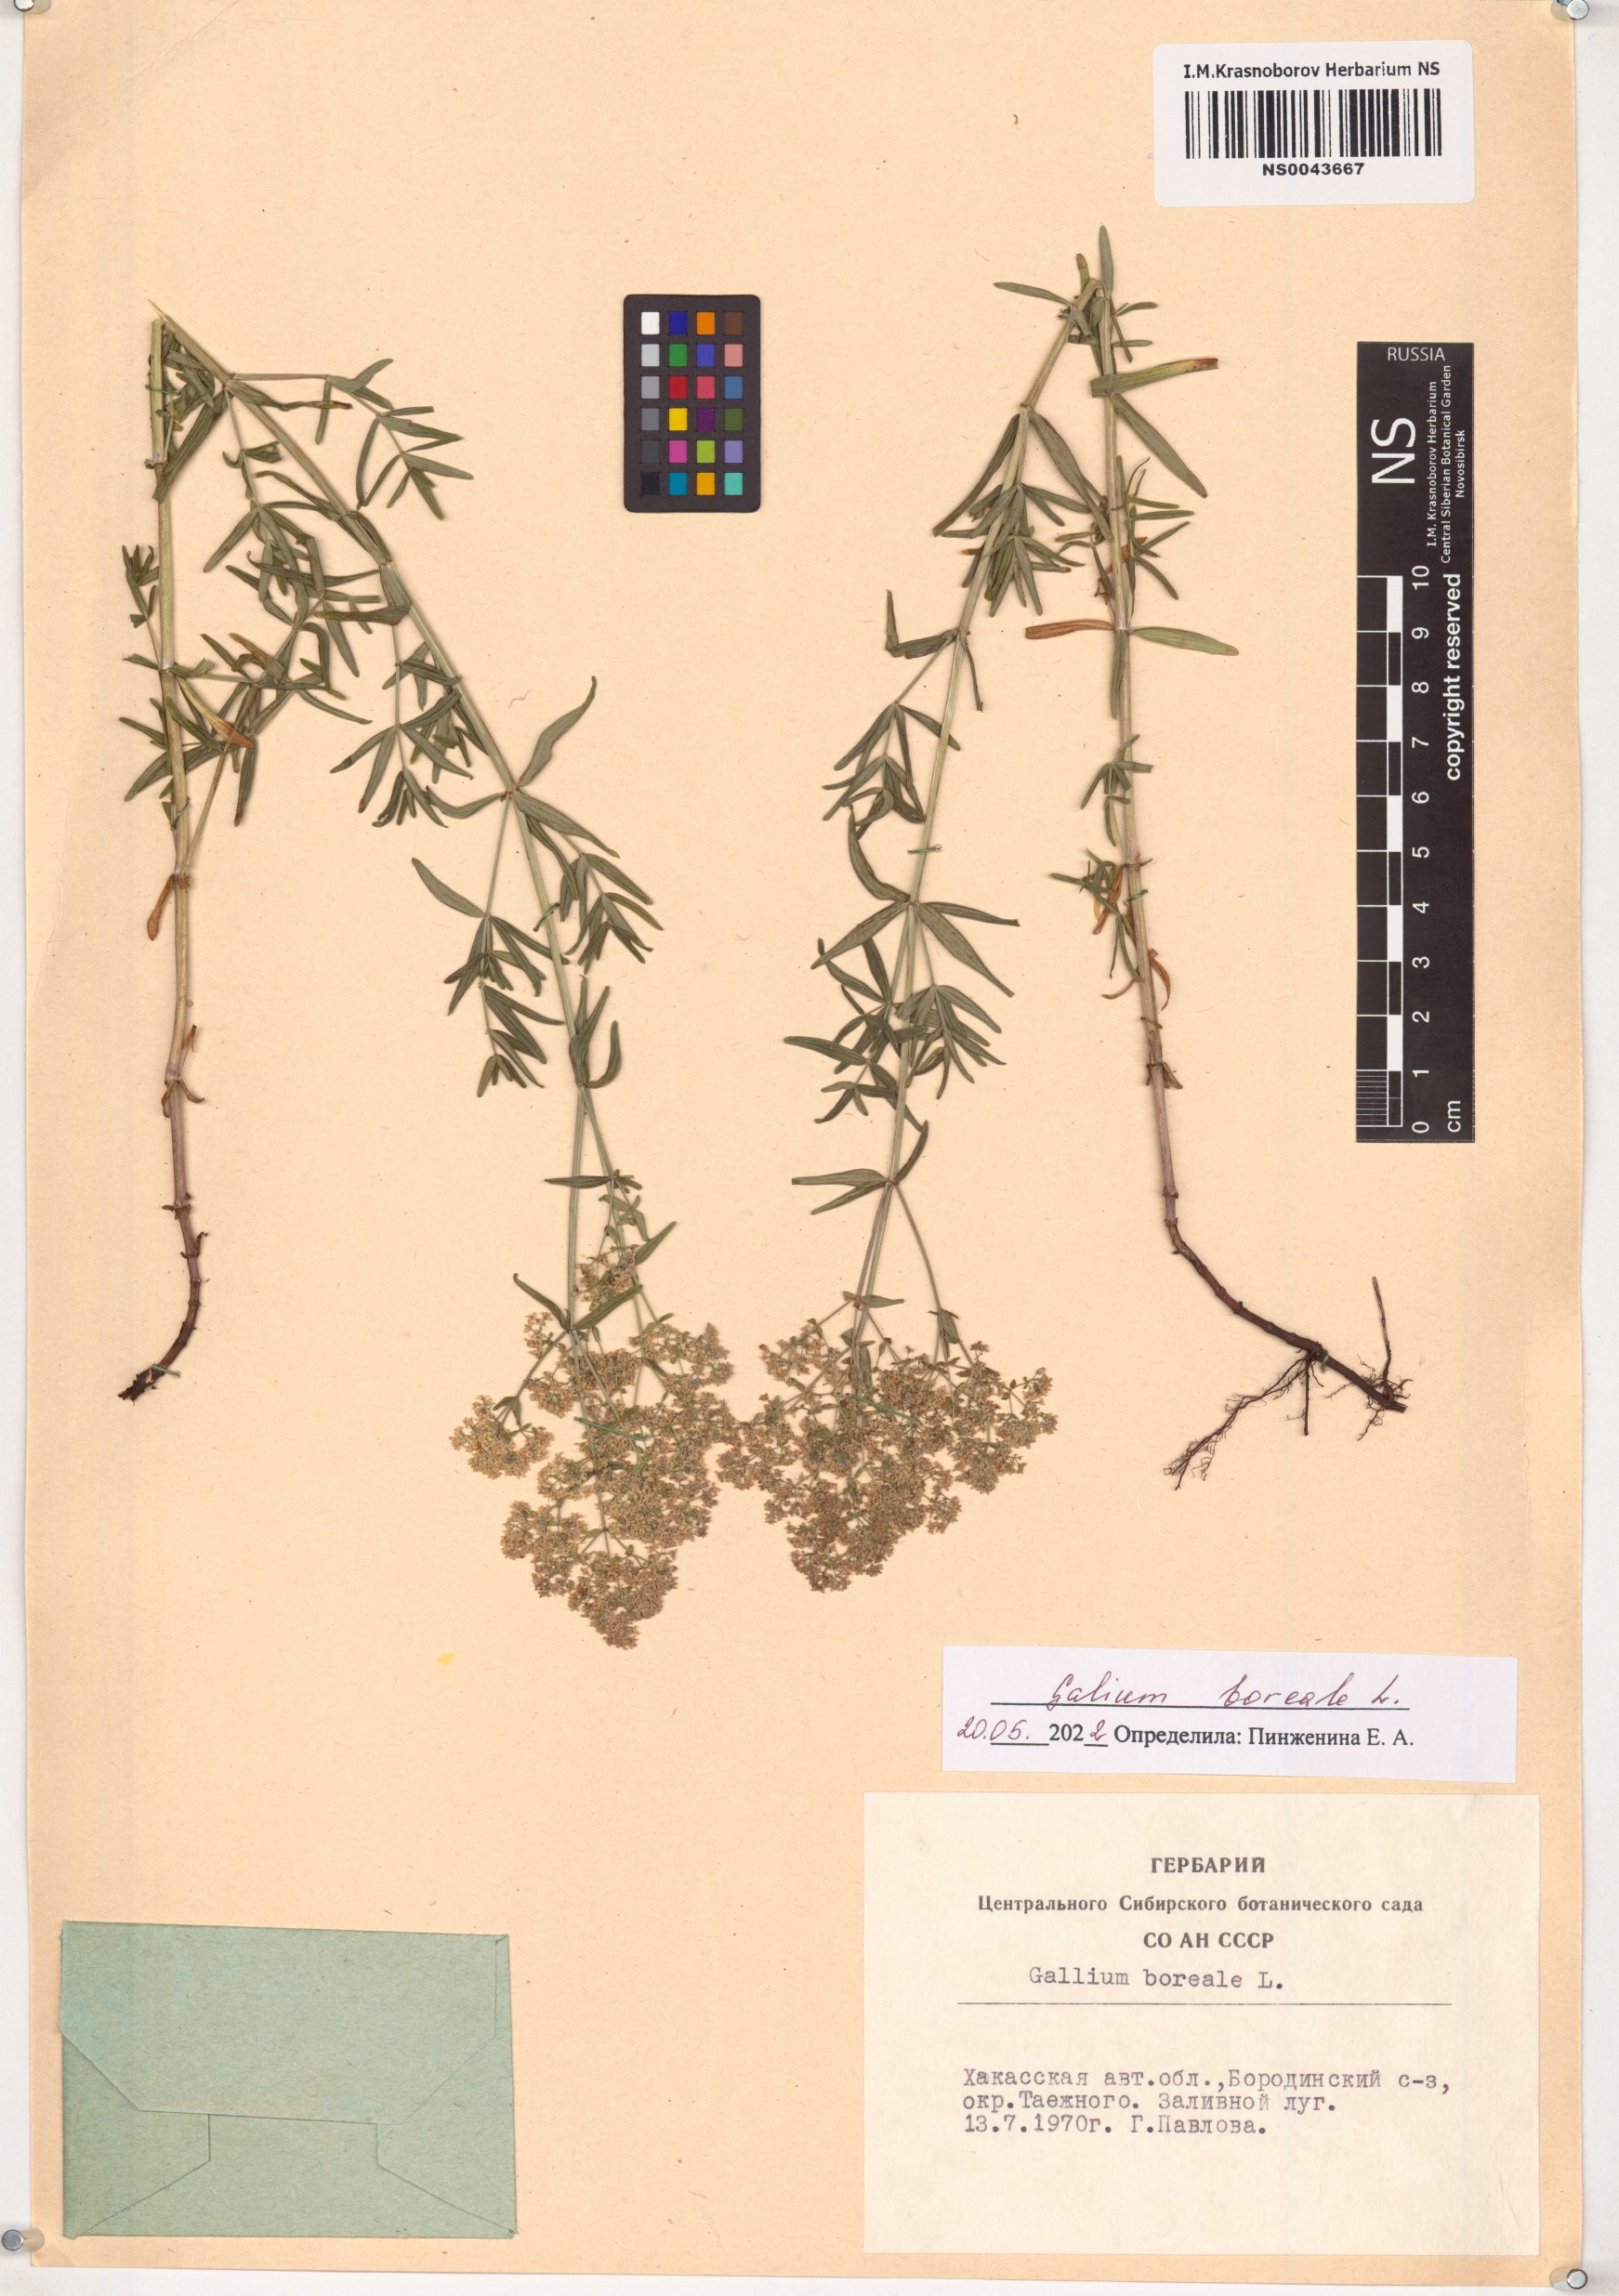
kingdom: Plantae
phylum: Tracheophyta
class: Magnoliopsida
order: Gentianales
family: Rubiaceae
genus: Galium
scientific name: Galium boreale
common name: Northern bedstraw
